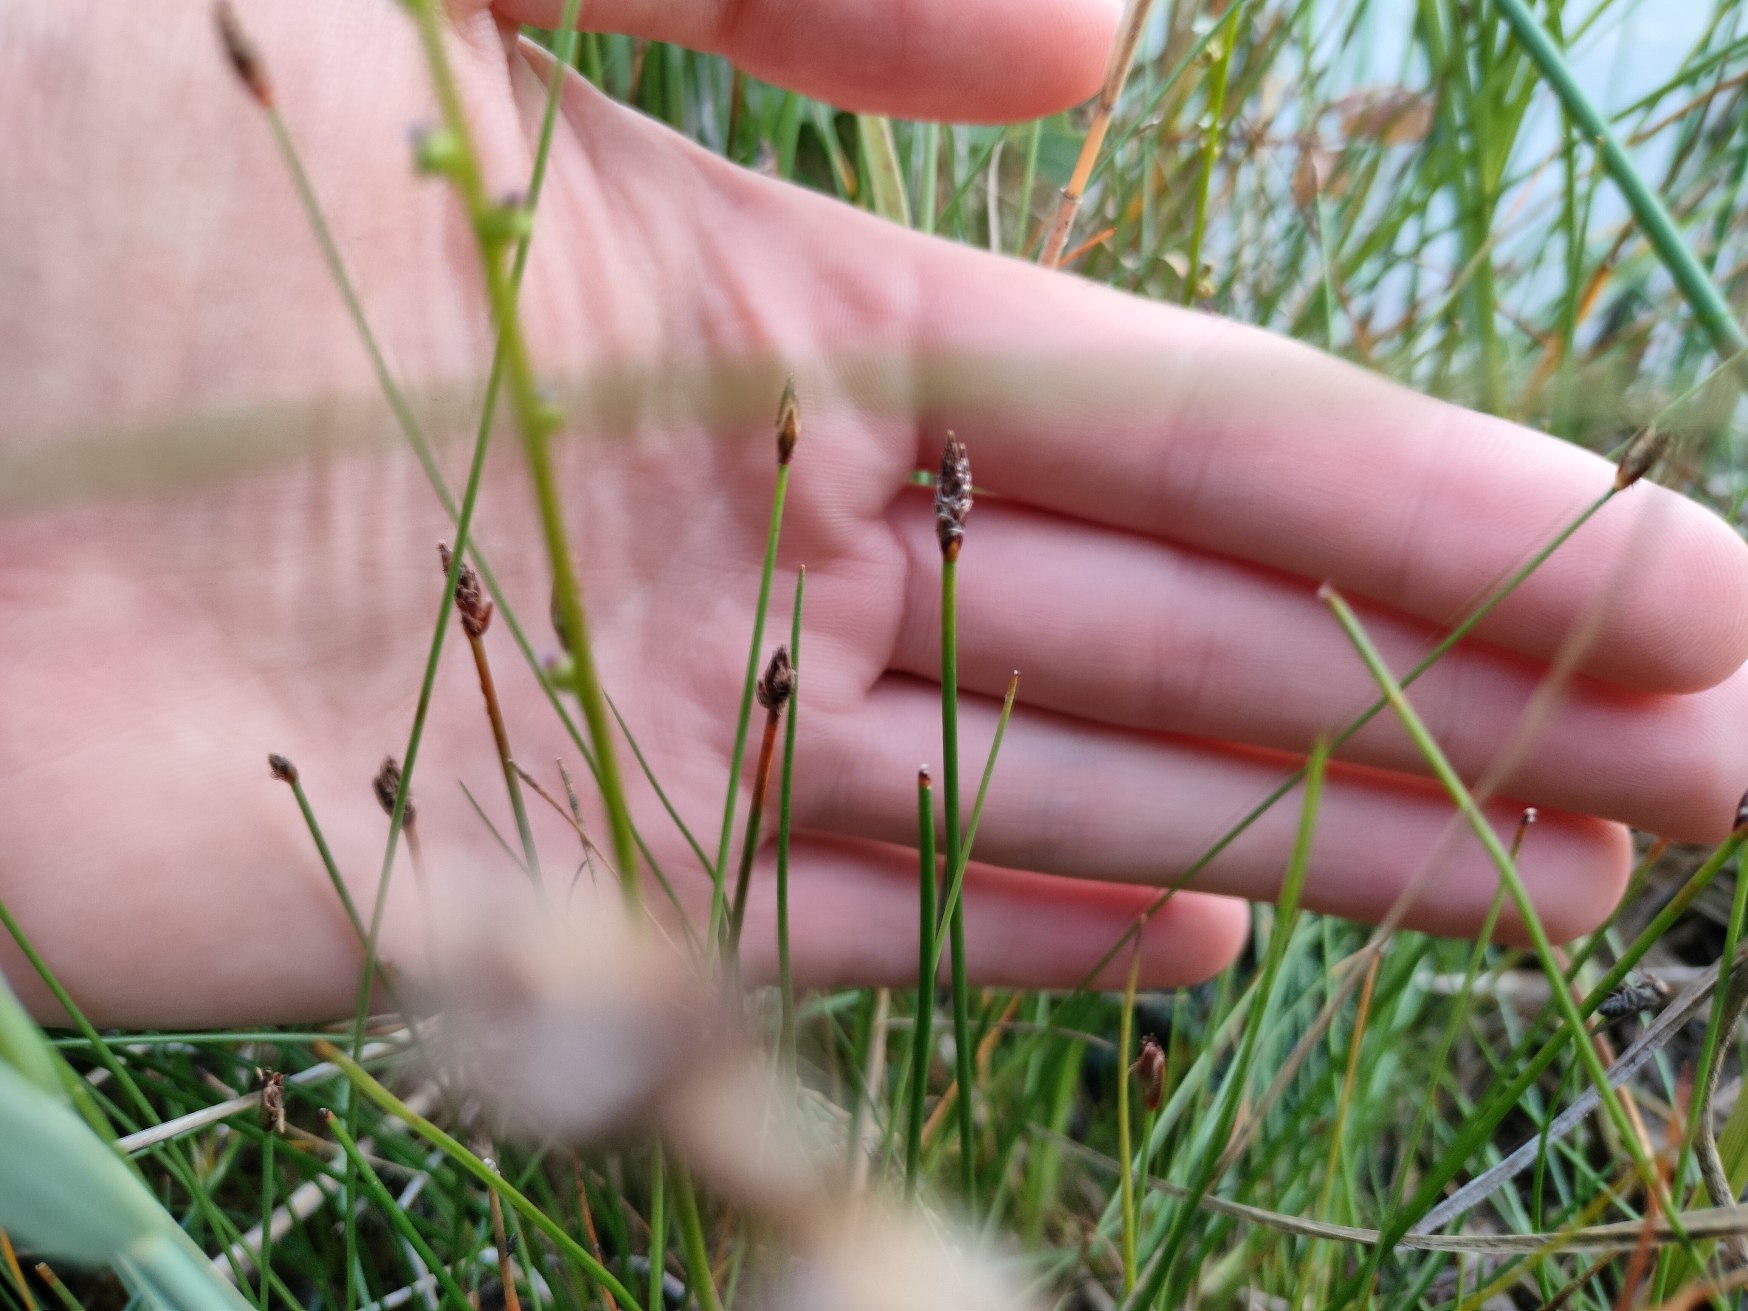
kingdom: Plantae
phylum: Tracheophyta
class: Liliopsida
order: Poales
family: Cyperaceae
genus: Eleocharis
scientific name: Eleocharis uniglumis
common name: Enskællet sumpstrå
